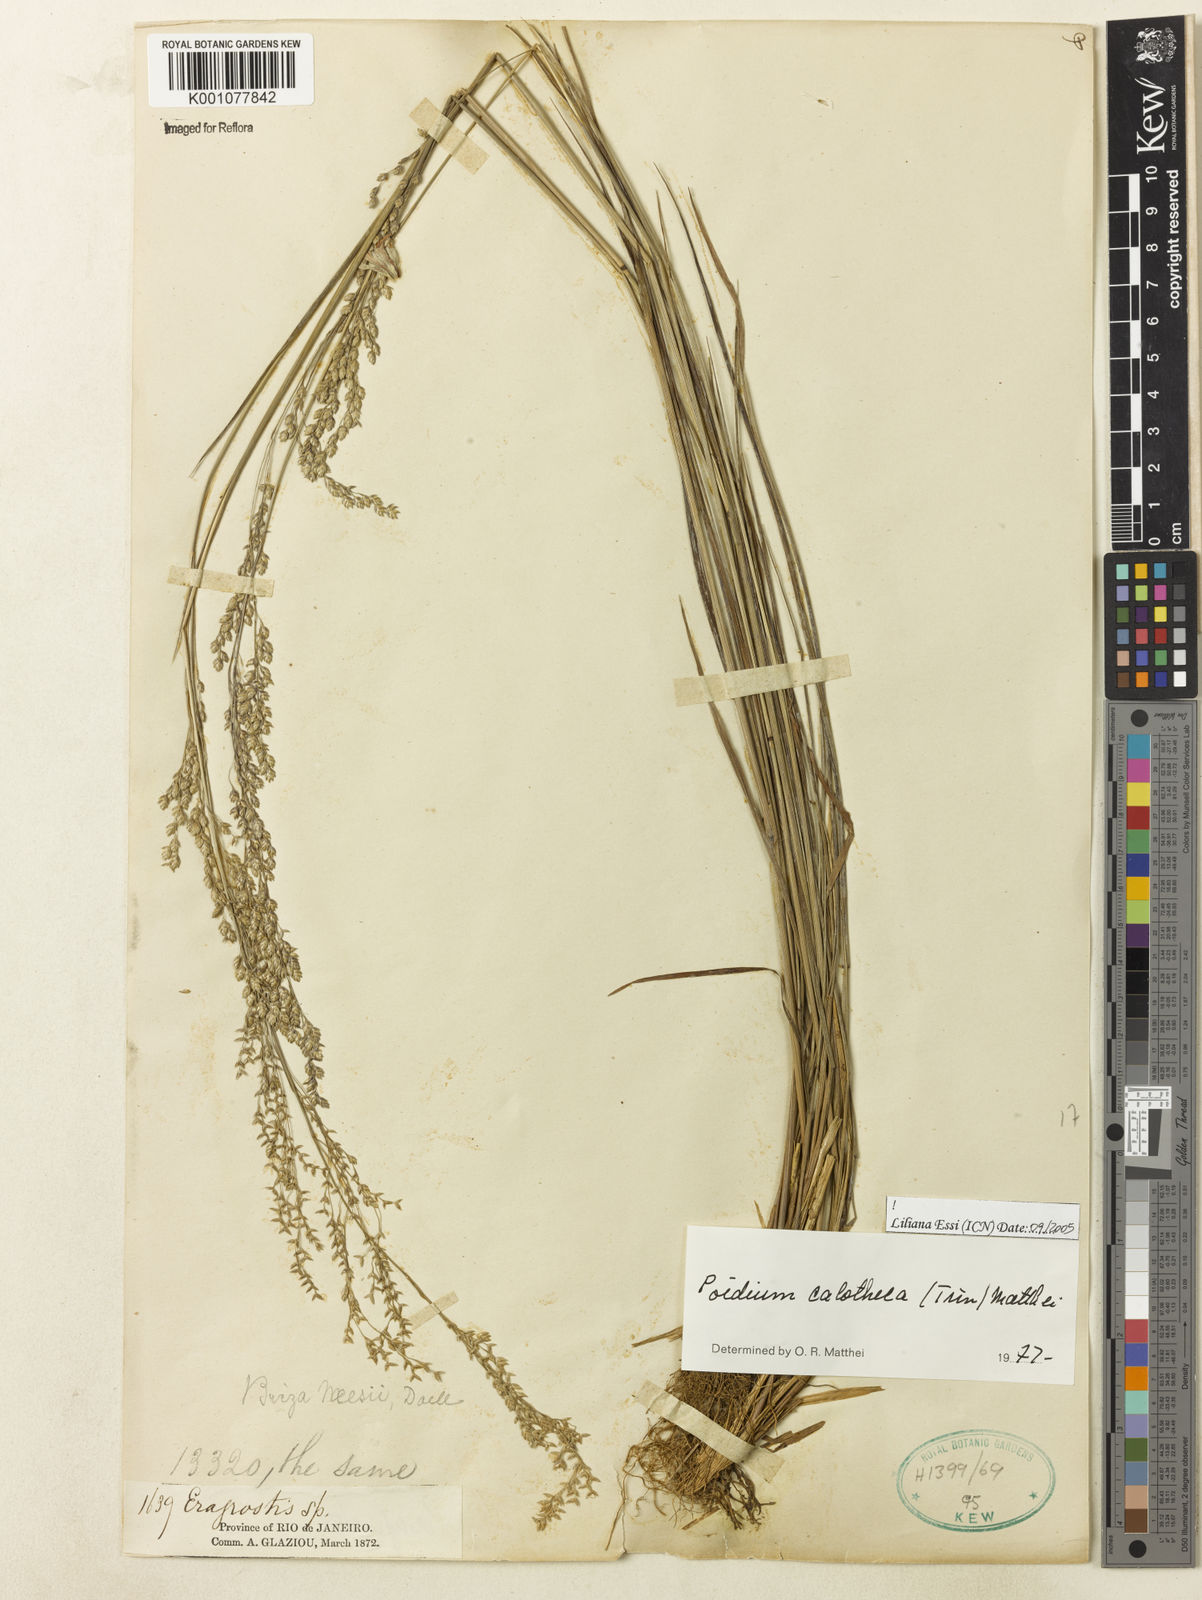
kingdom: Plantae
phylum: Tracheophyta
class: Liliopsida
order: Poales
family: Poaceae
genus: Poidium
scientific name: Poidium calotheca
